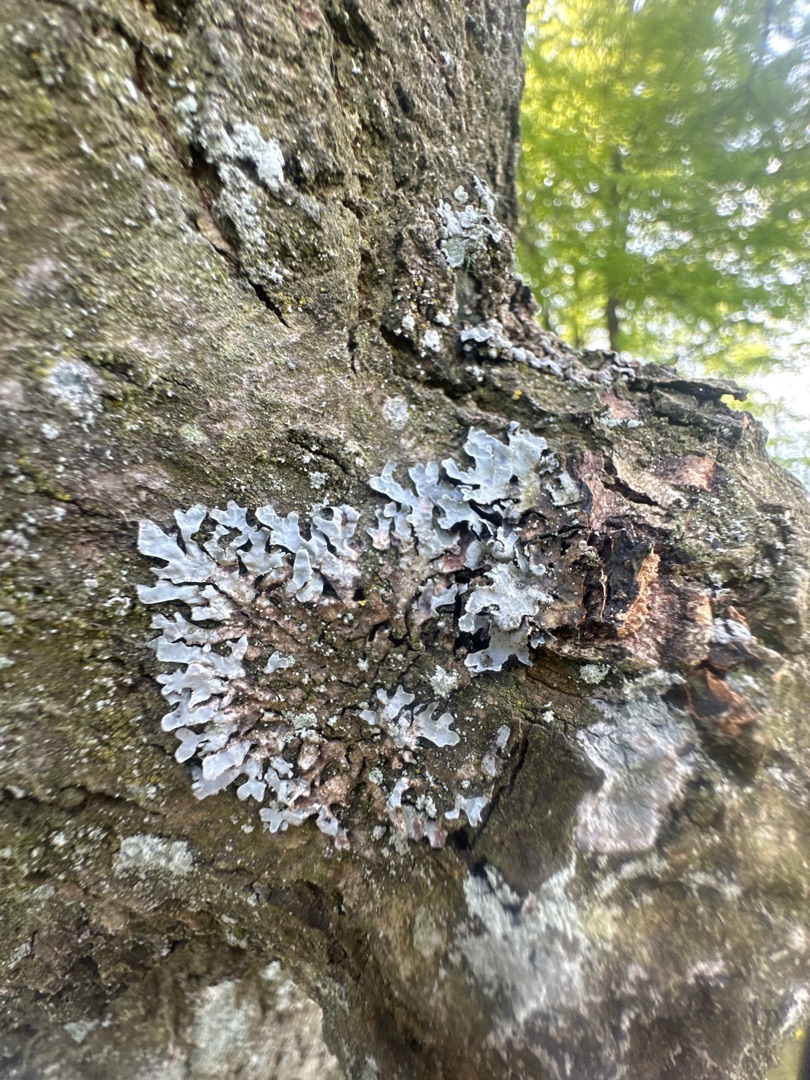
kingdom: Fungi
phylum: Ascomycota
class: Lecanoromycetes
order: Lecanorales
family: Parmeliaceae
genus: Parmelia
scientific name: Parmelia sulcata
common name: Rynket skållav
